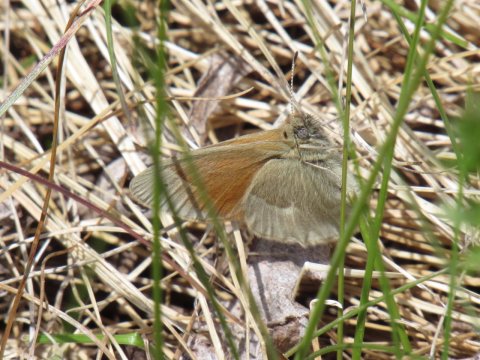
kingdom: Animalia
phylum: Arthropoda
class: Insecta
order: Lepidoptera
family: Nymphalidae
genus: Coenonympha
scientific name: Coenonympha tullia
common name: Large Heath
